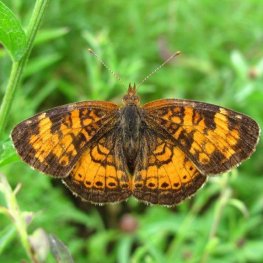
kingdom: Animalia
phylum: Arthropoda
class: Insecta
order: Lepidoptera
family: Nymphalidae
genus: Phyciodes
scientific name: Phyciodes tharos
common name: Northern Crescent
